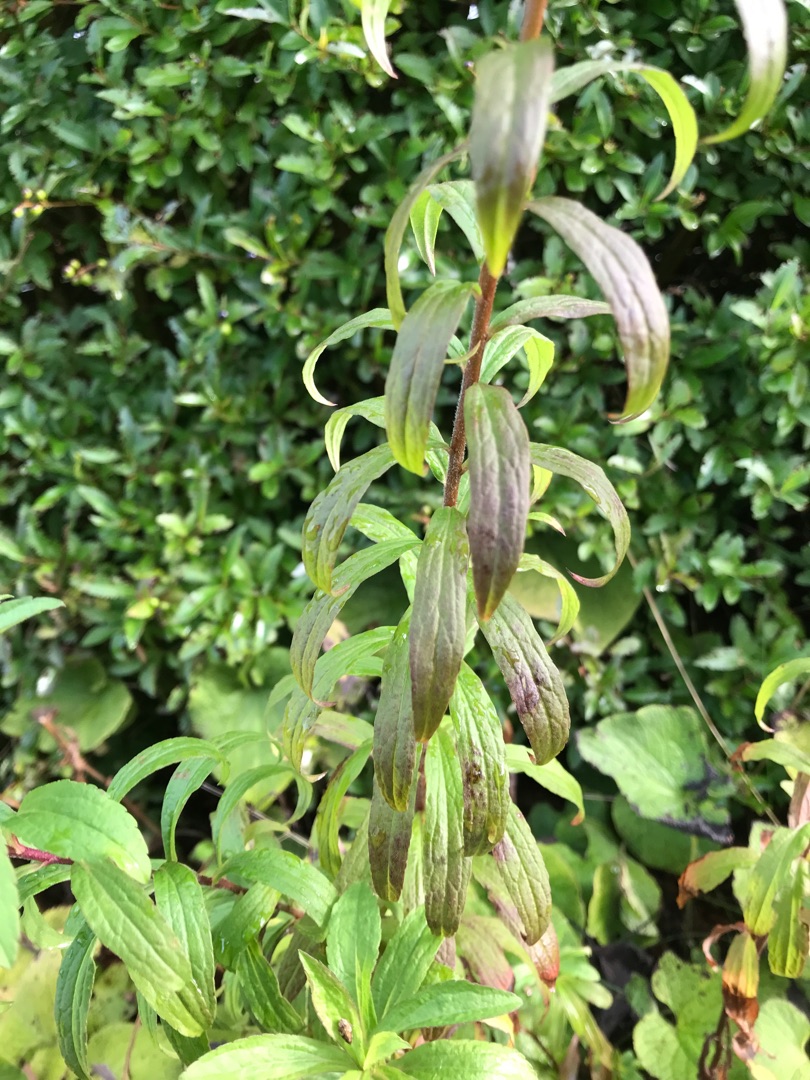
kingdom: Plantae
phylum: Tracheophyta
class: Magnoliopsida
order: Asterales
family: Asteraceae
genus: Solidago
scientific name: Solidago canadensis
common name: Kanadisk gyldenris
